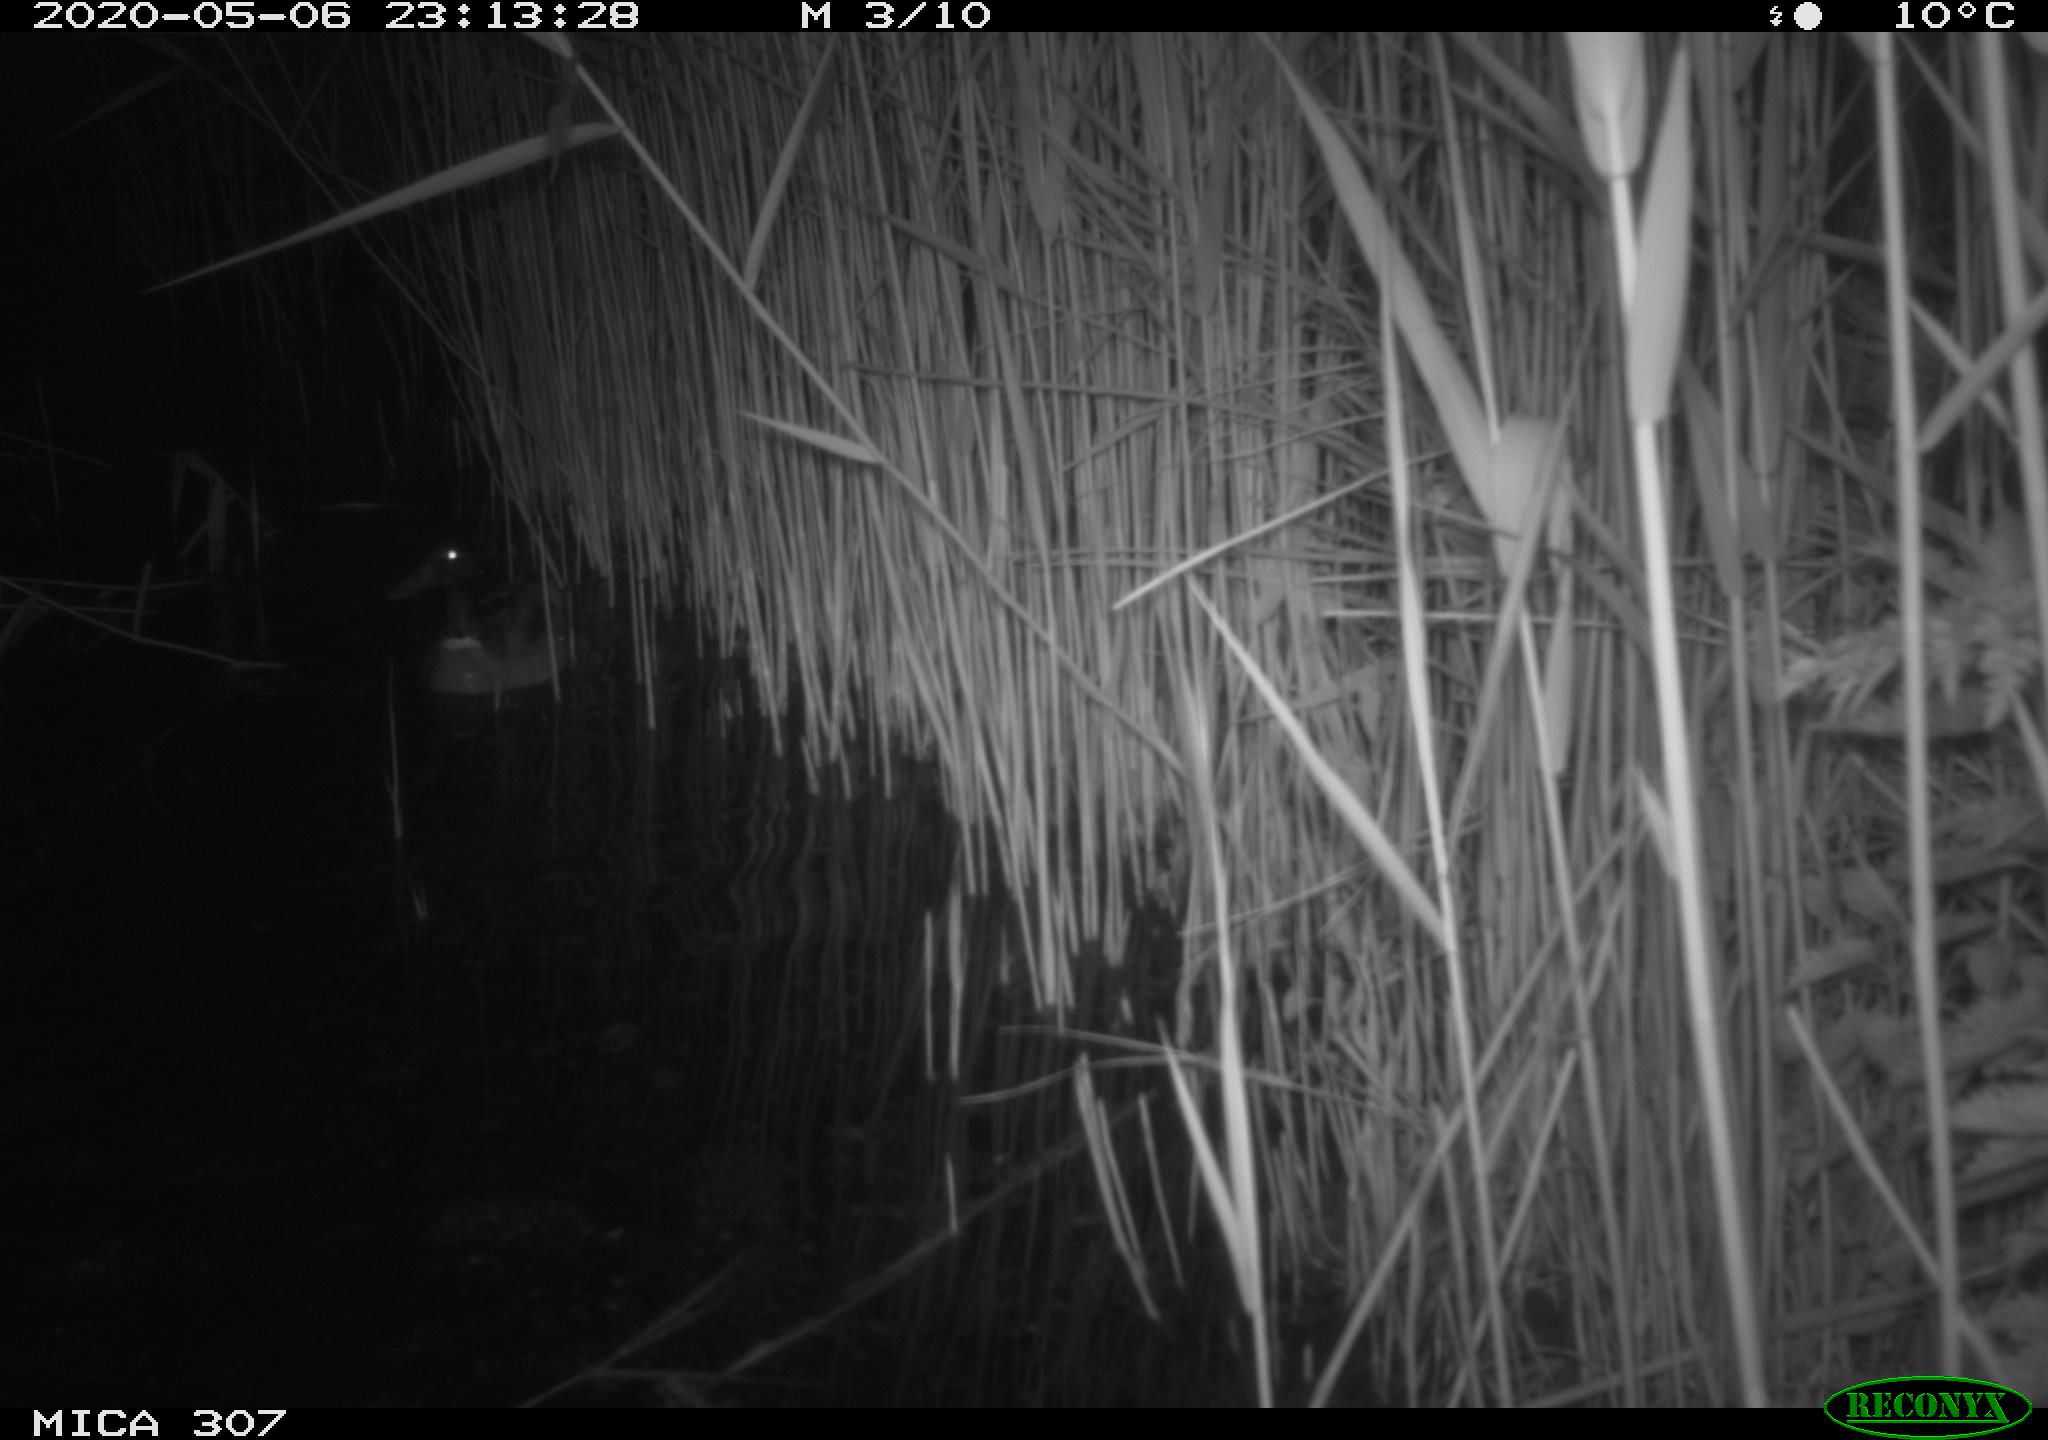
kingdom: Animalia
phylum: Chordata
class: Aves
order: Anseriformes
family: Anatidae
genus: Anas
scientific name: Anas platyrhynchos
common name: Mallard
